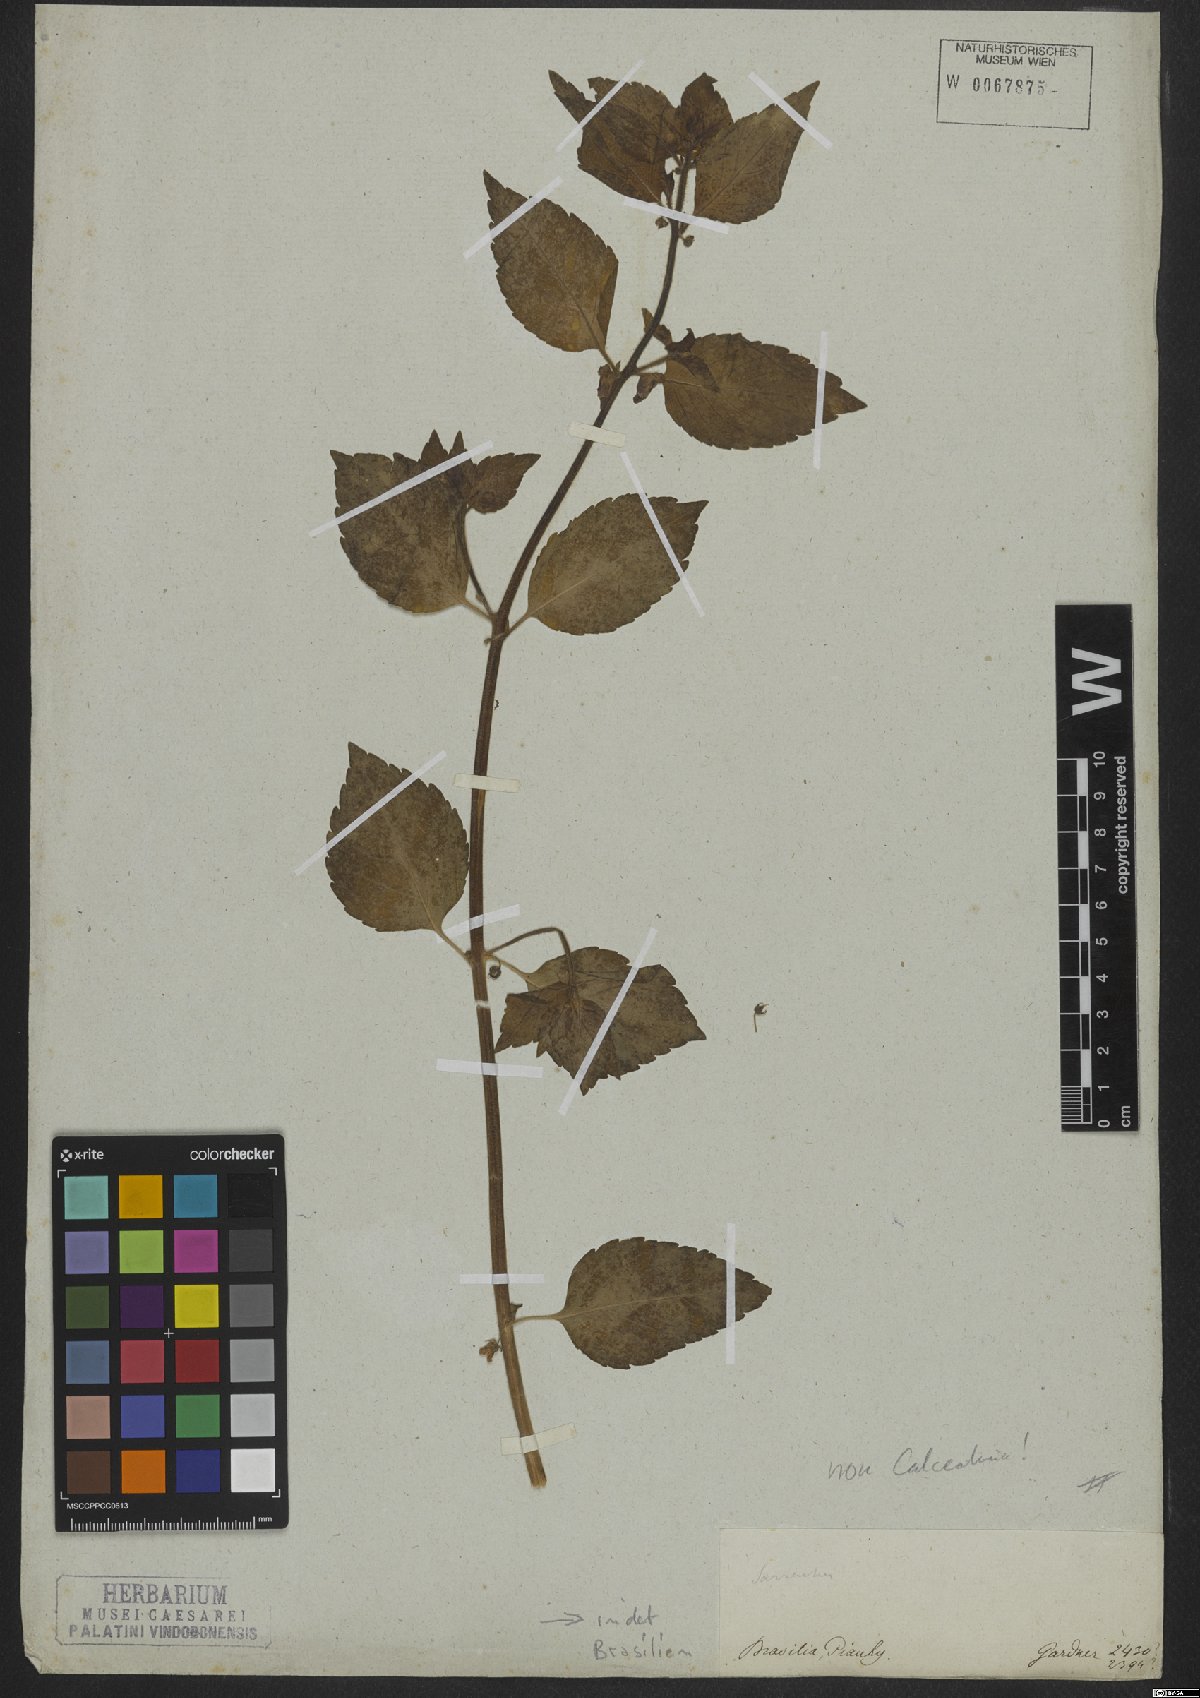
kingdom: Plantae
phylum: Tracheophyta
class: Magnoliopsida
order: Lamiales
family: Plantaginaceae
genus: Angelonia
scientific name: Angelonia pubescens
